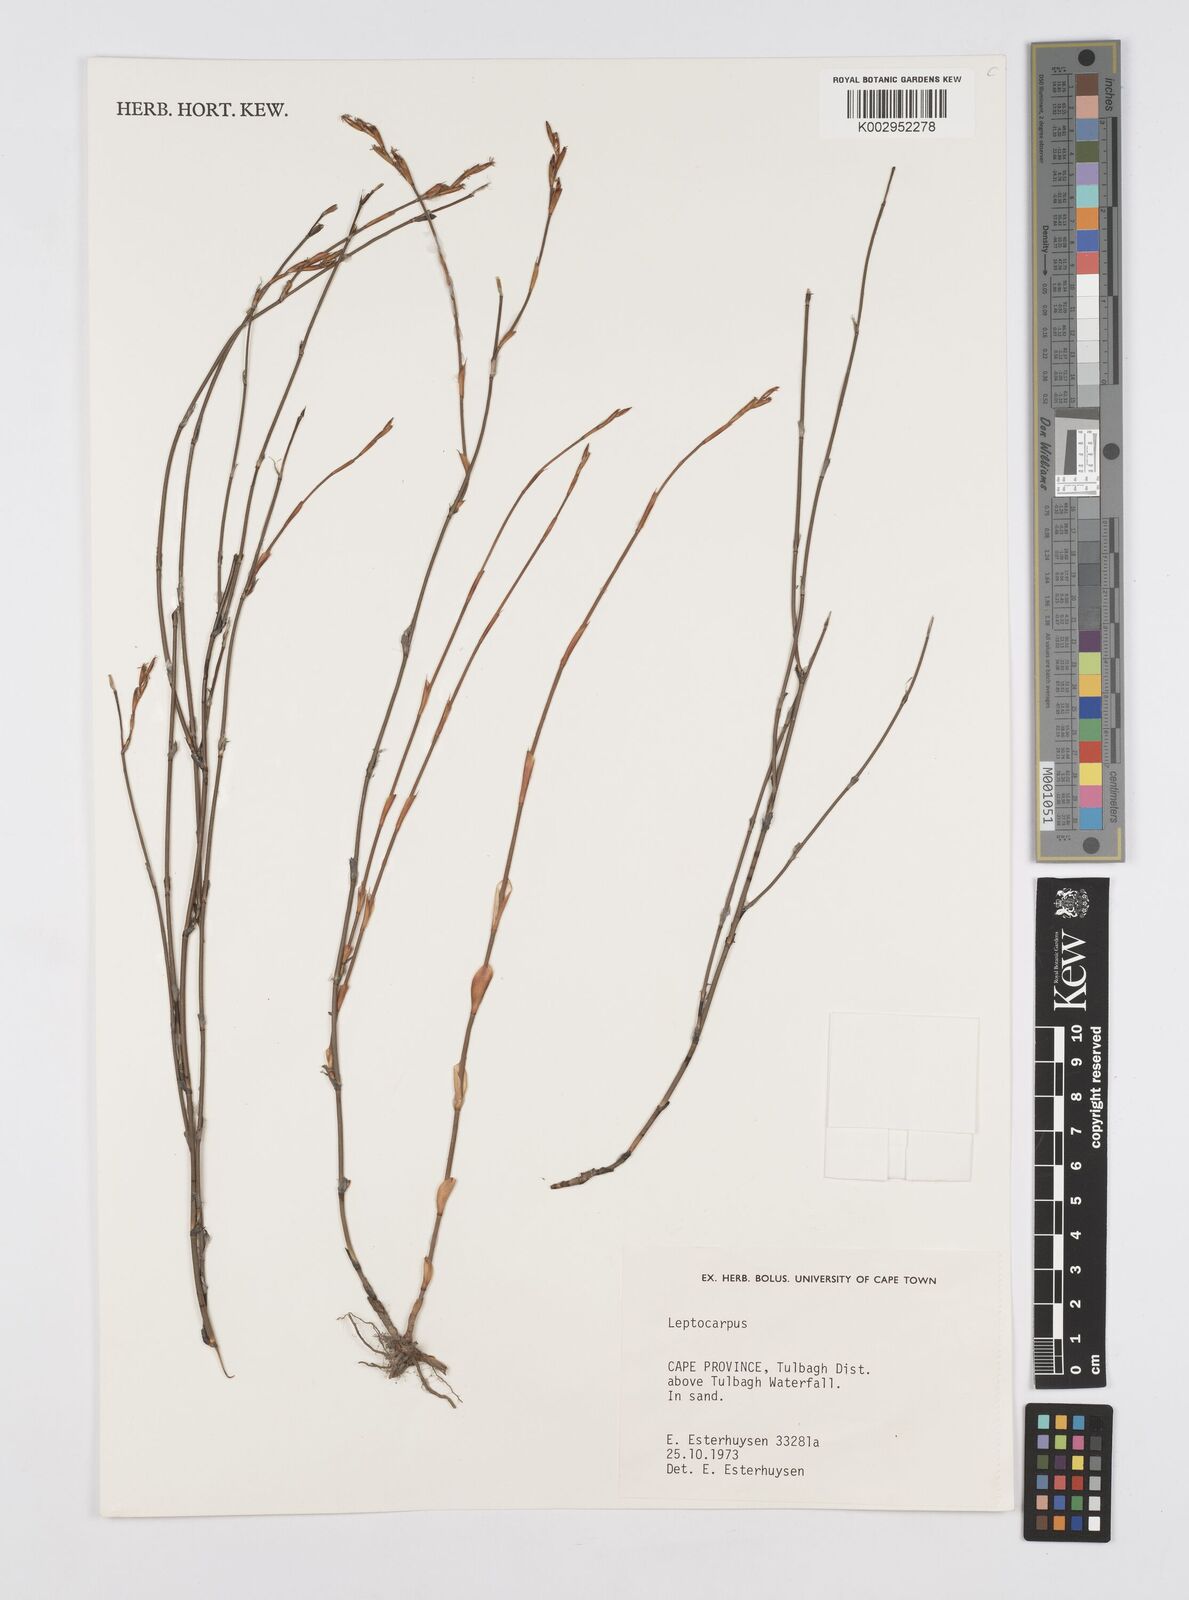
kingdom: Plantae
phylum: Tracheophyta
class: Liliopsida
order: Poales
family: Restionaceae
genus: Restio
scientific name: Restio
